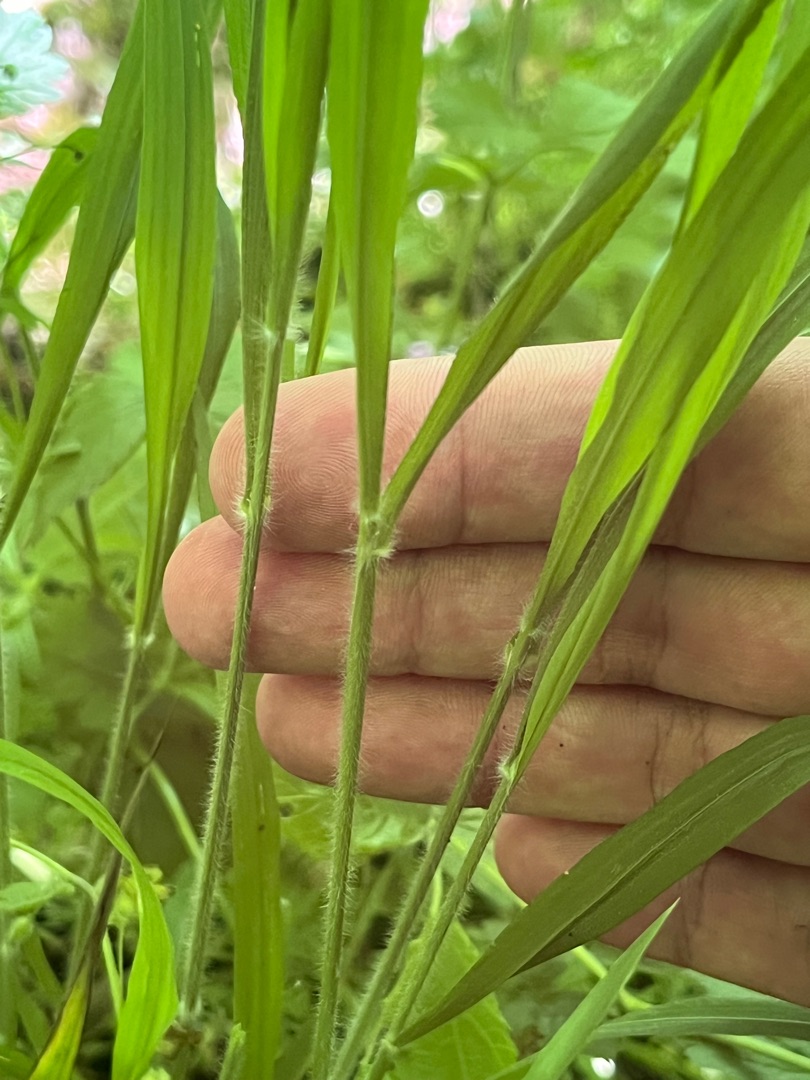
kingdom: Plantae
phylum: Tracheophyta
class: Liliopsida
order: Poales
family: Poaceae
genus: Brachypodium
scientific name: Brachypodium sylvaticum
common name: Skov-stilkaks
